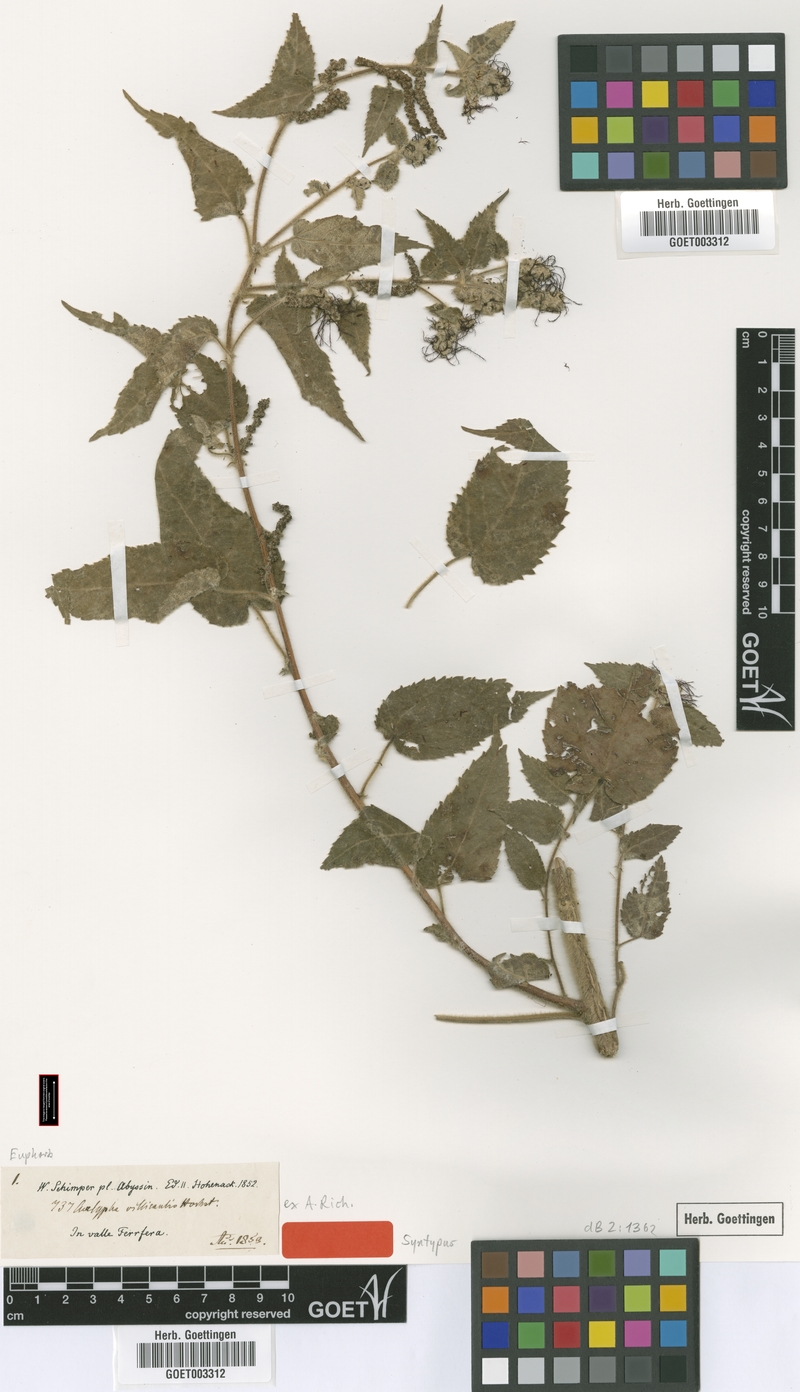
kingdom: Plantae
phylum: Tracheophyta
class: Magnoliopsida
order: Malpighiales
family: Euphorbiaceae
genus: Acalypha
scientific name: Acalypha petiolaris
